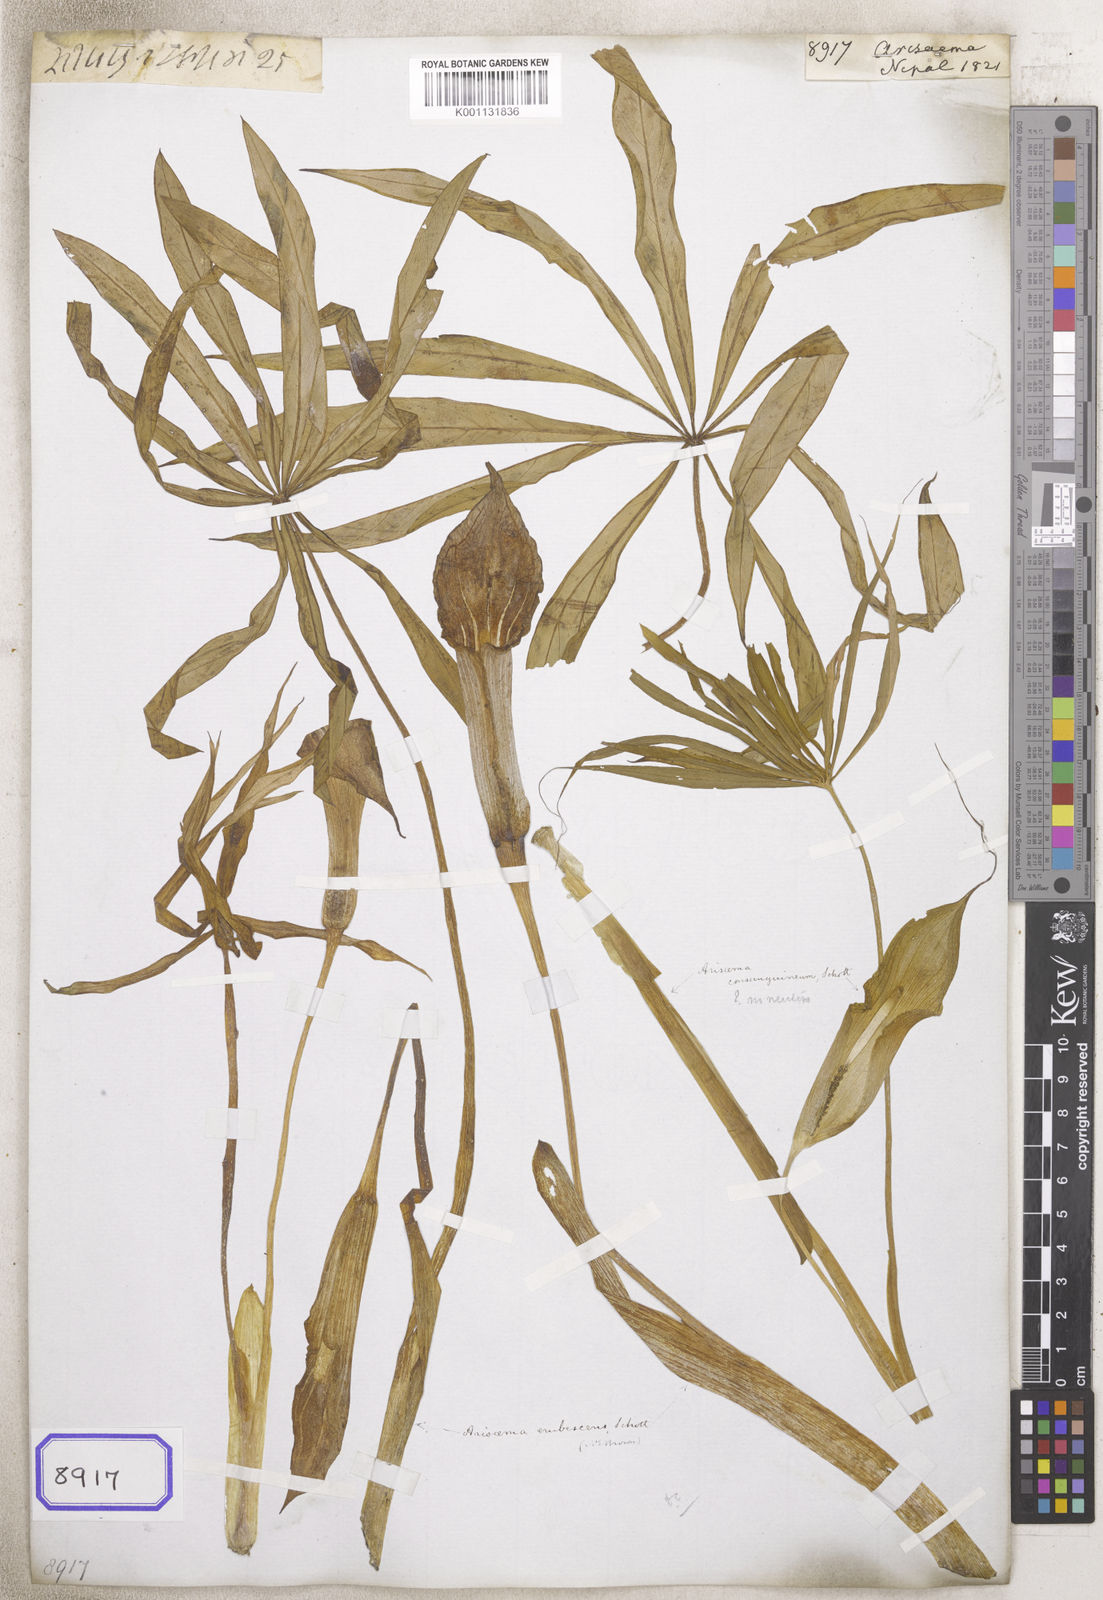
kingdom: Plantae
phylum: Tracheophyta
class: Liliopsida
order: Alismatales
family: Araceae
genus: Arisaema
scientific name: Arisaema
